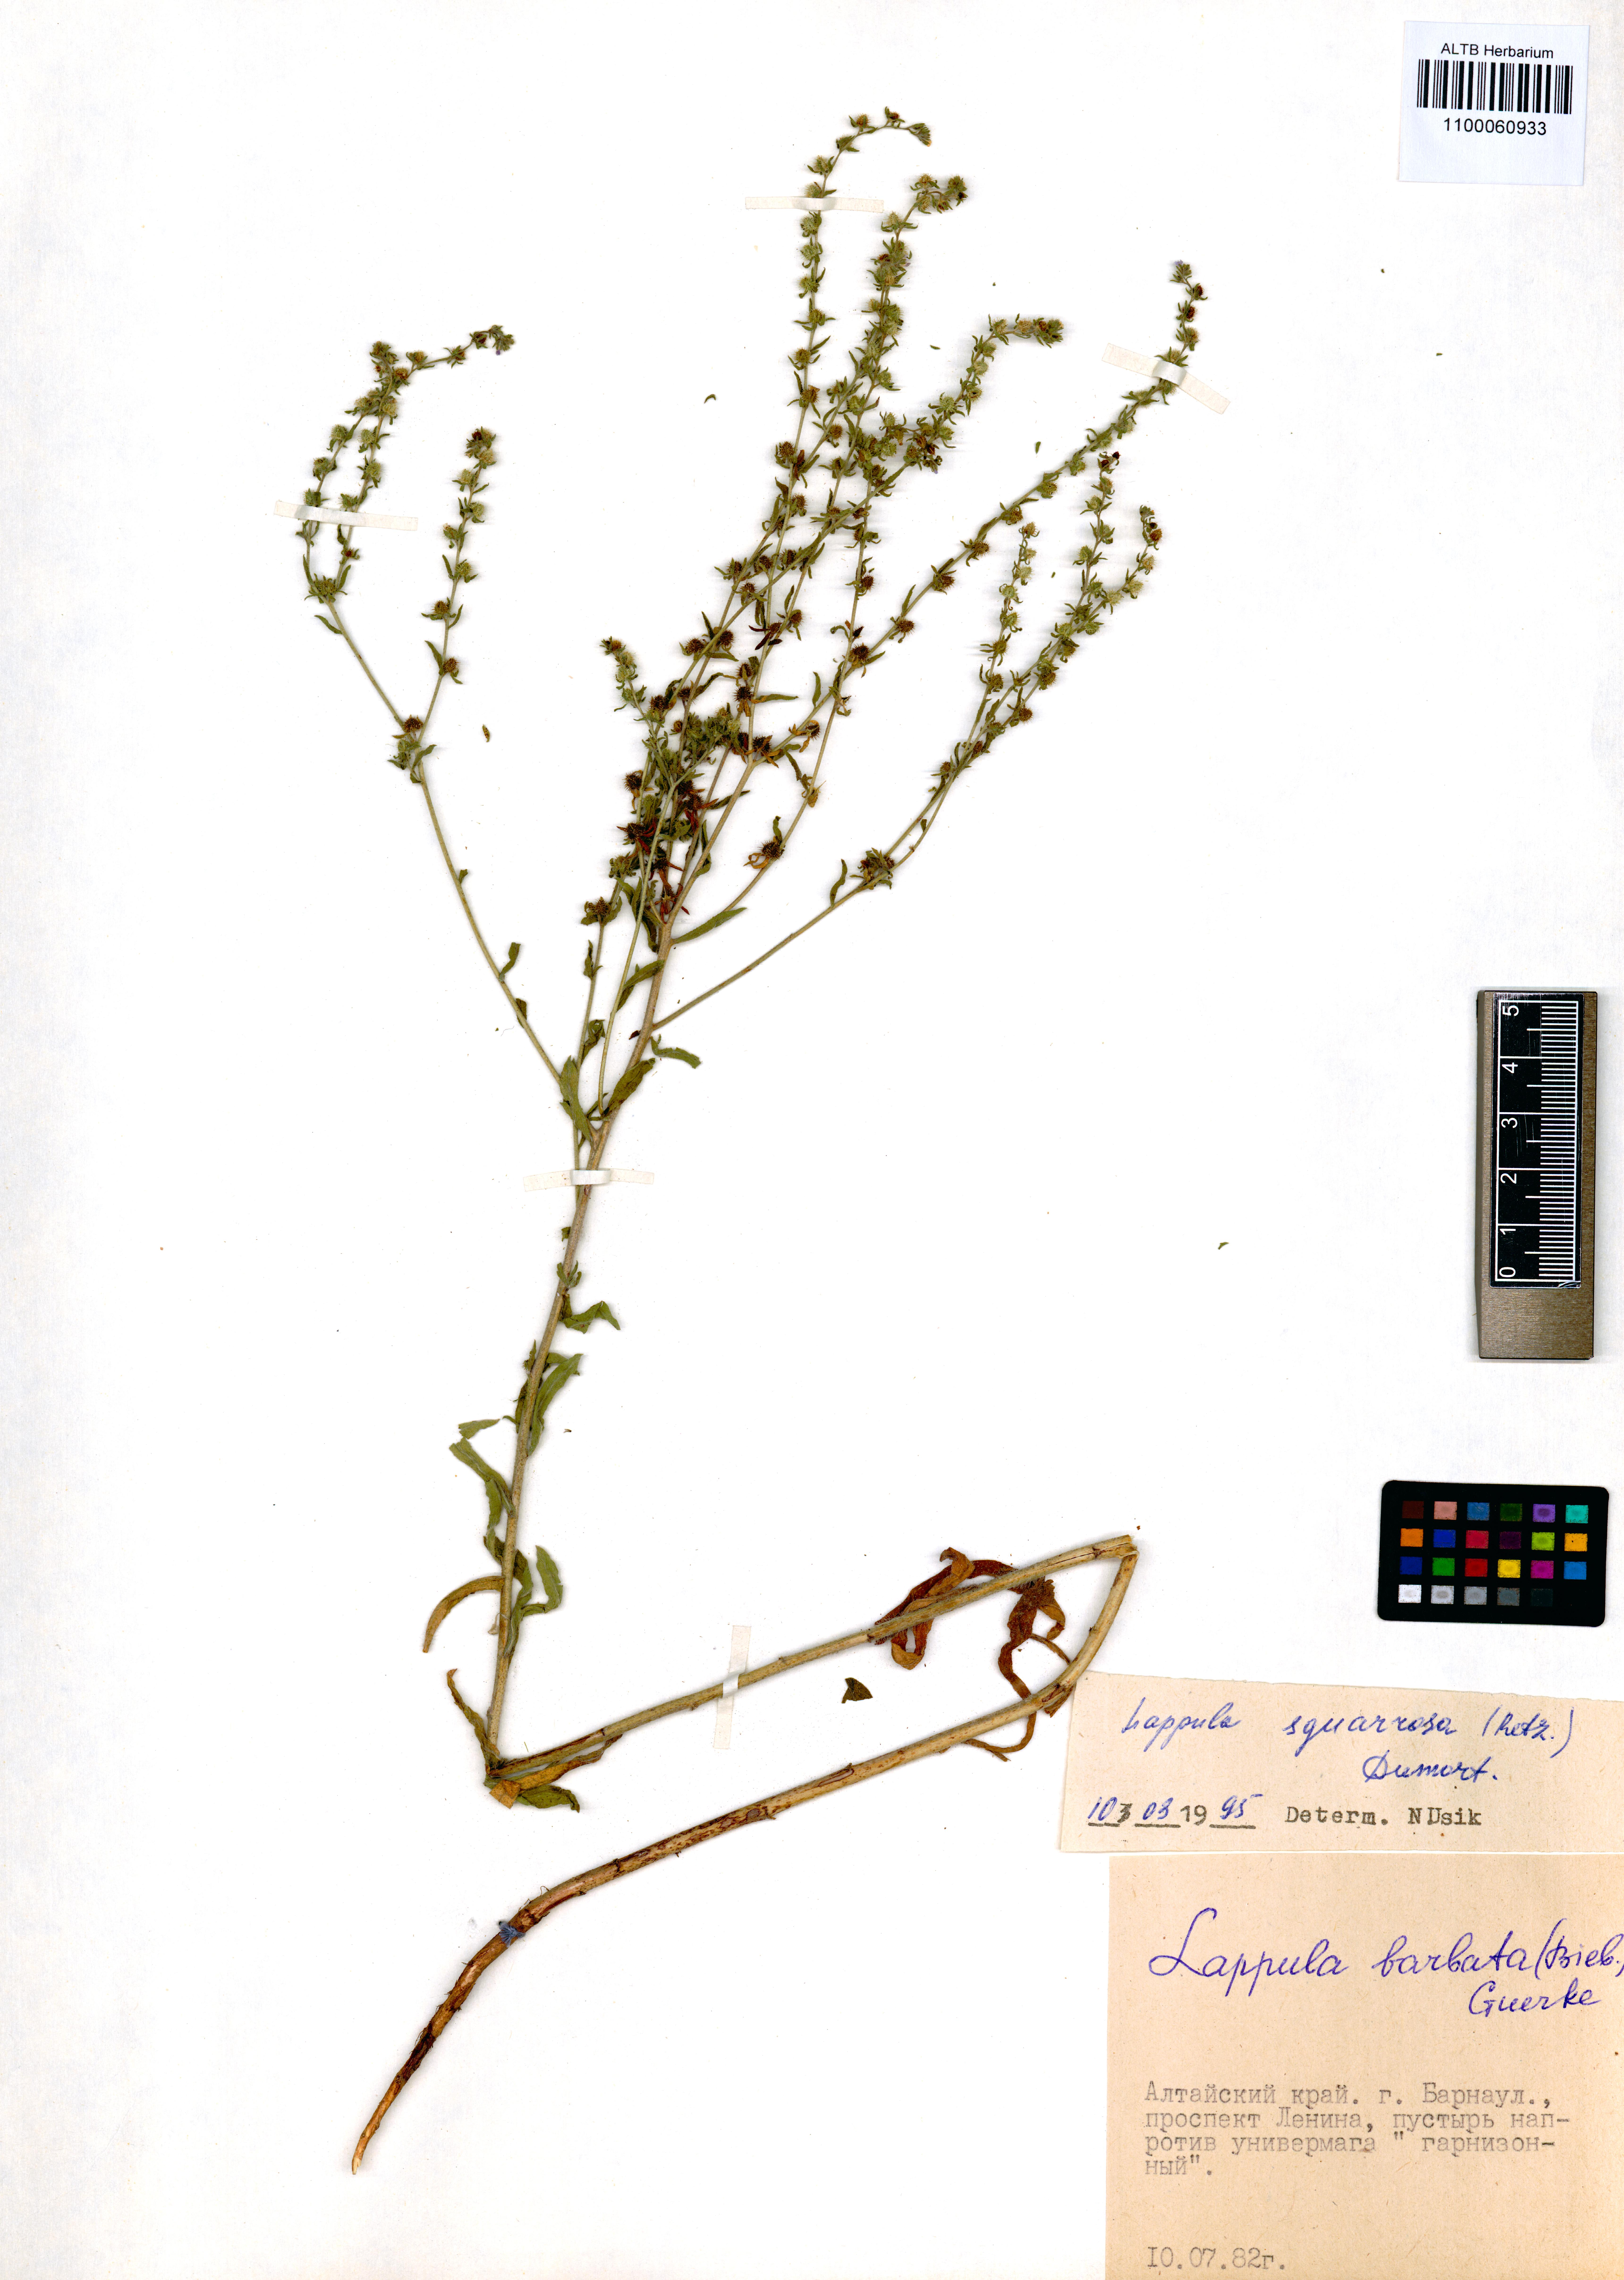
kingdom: Plantae
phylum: Tracheophyta
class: Magnoliopsida
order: Boraginales
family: Boraginaceae
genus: Lappula
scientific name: Lappula squarrosa
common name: European stickseed
